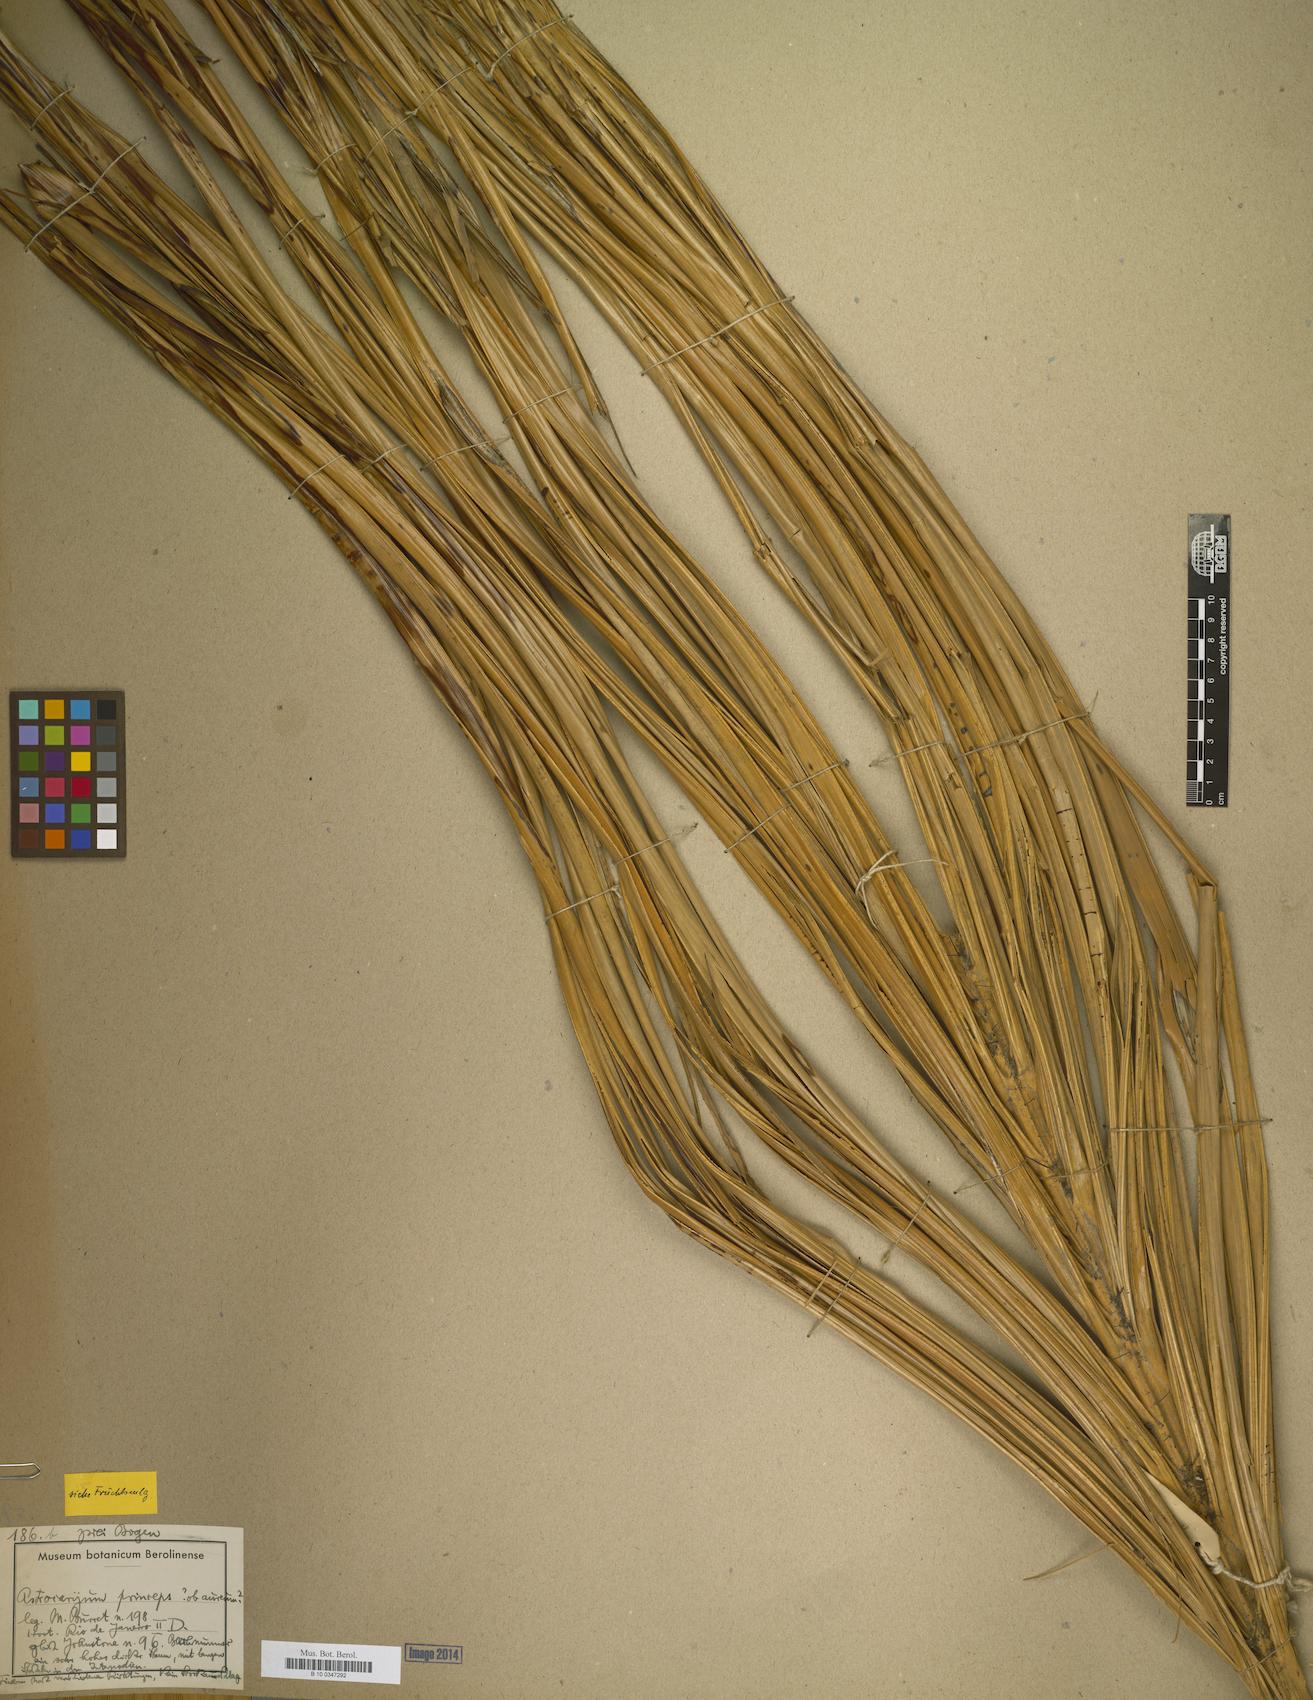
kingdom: Plantae
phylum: Tracheophyta
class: Liliopsida
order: Arecales
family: Arecaceae
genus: Astrocaryum
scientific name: Astrocaryum tucuma
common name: Tucum palm
